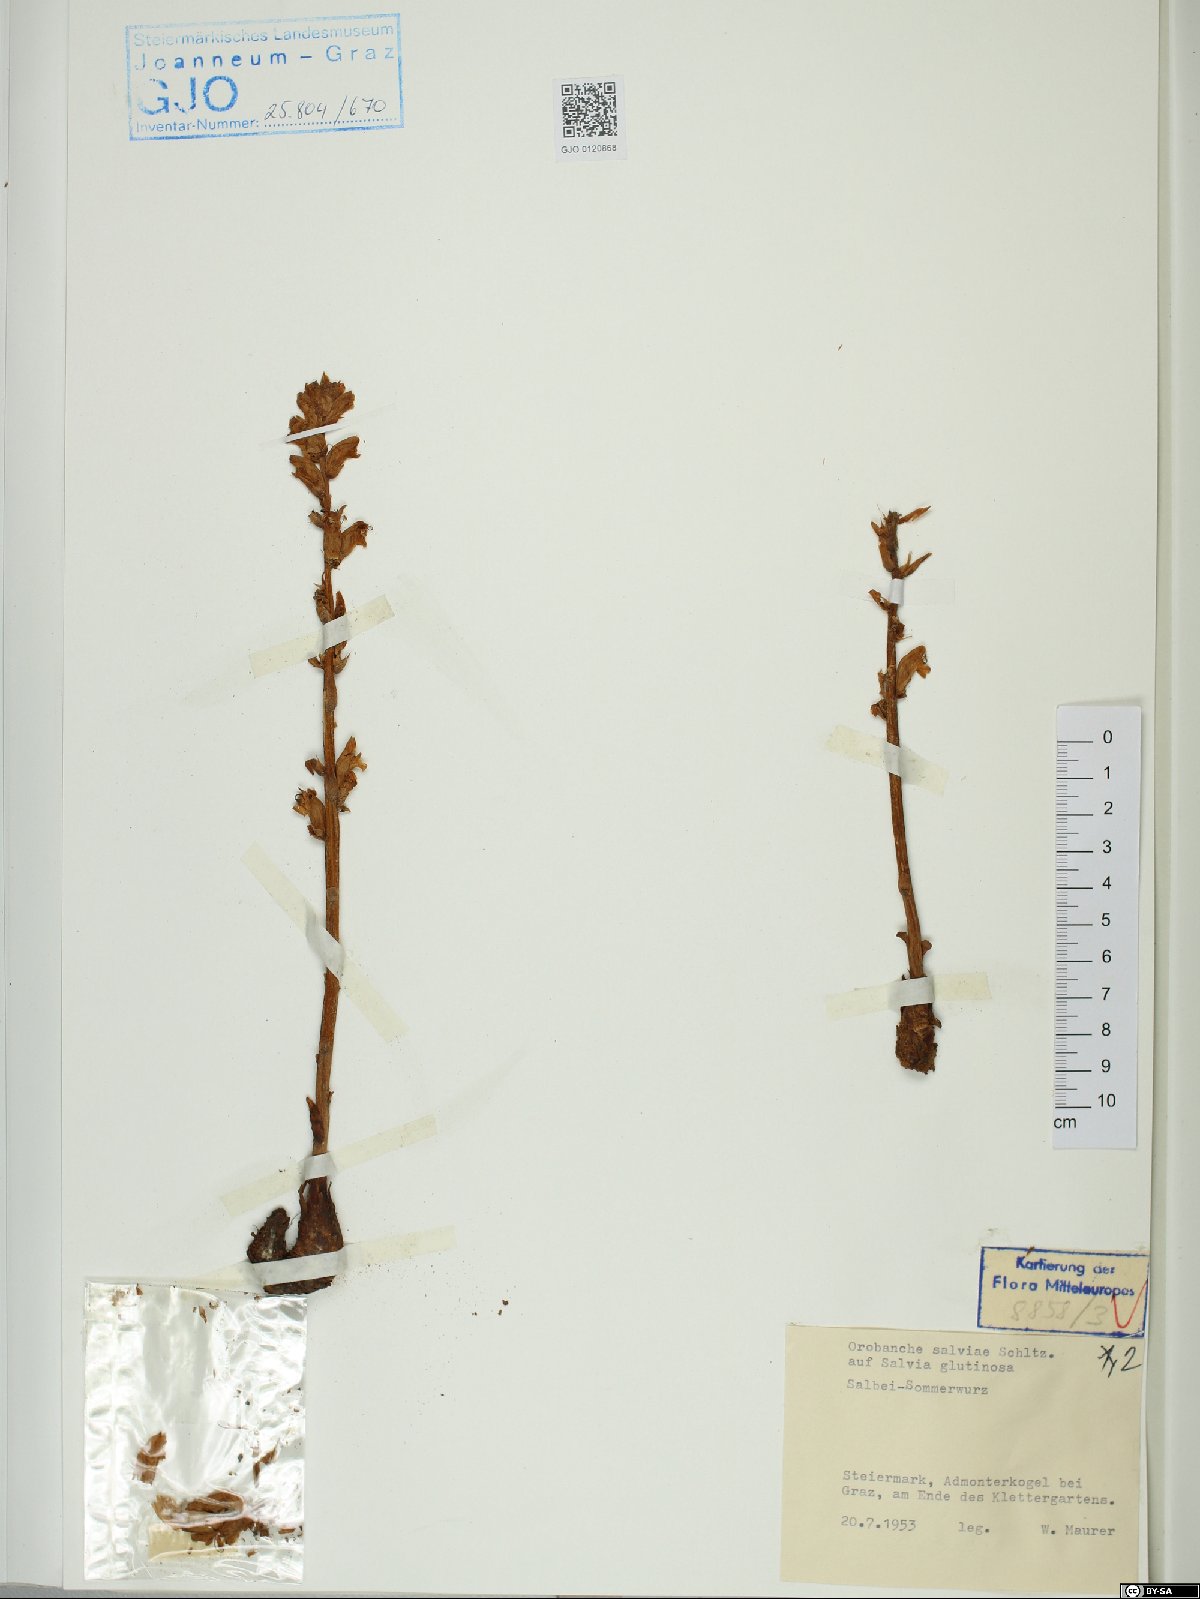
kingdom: Plantae
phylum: Tracheophyta
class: Magnoliopsida
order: Lamiales
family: Orobanchaceae
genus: Orobanche
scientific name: Orobanche salviae
